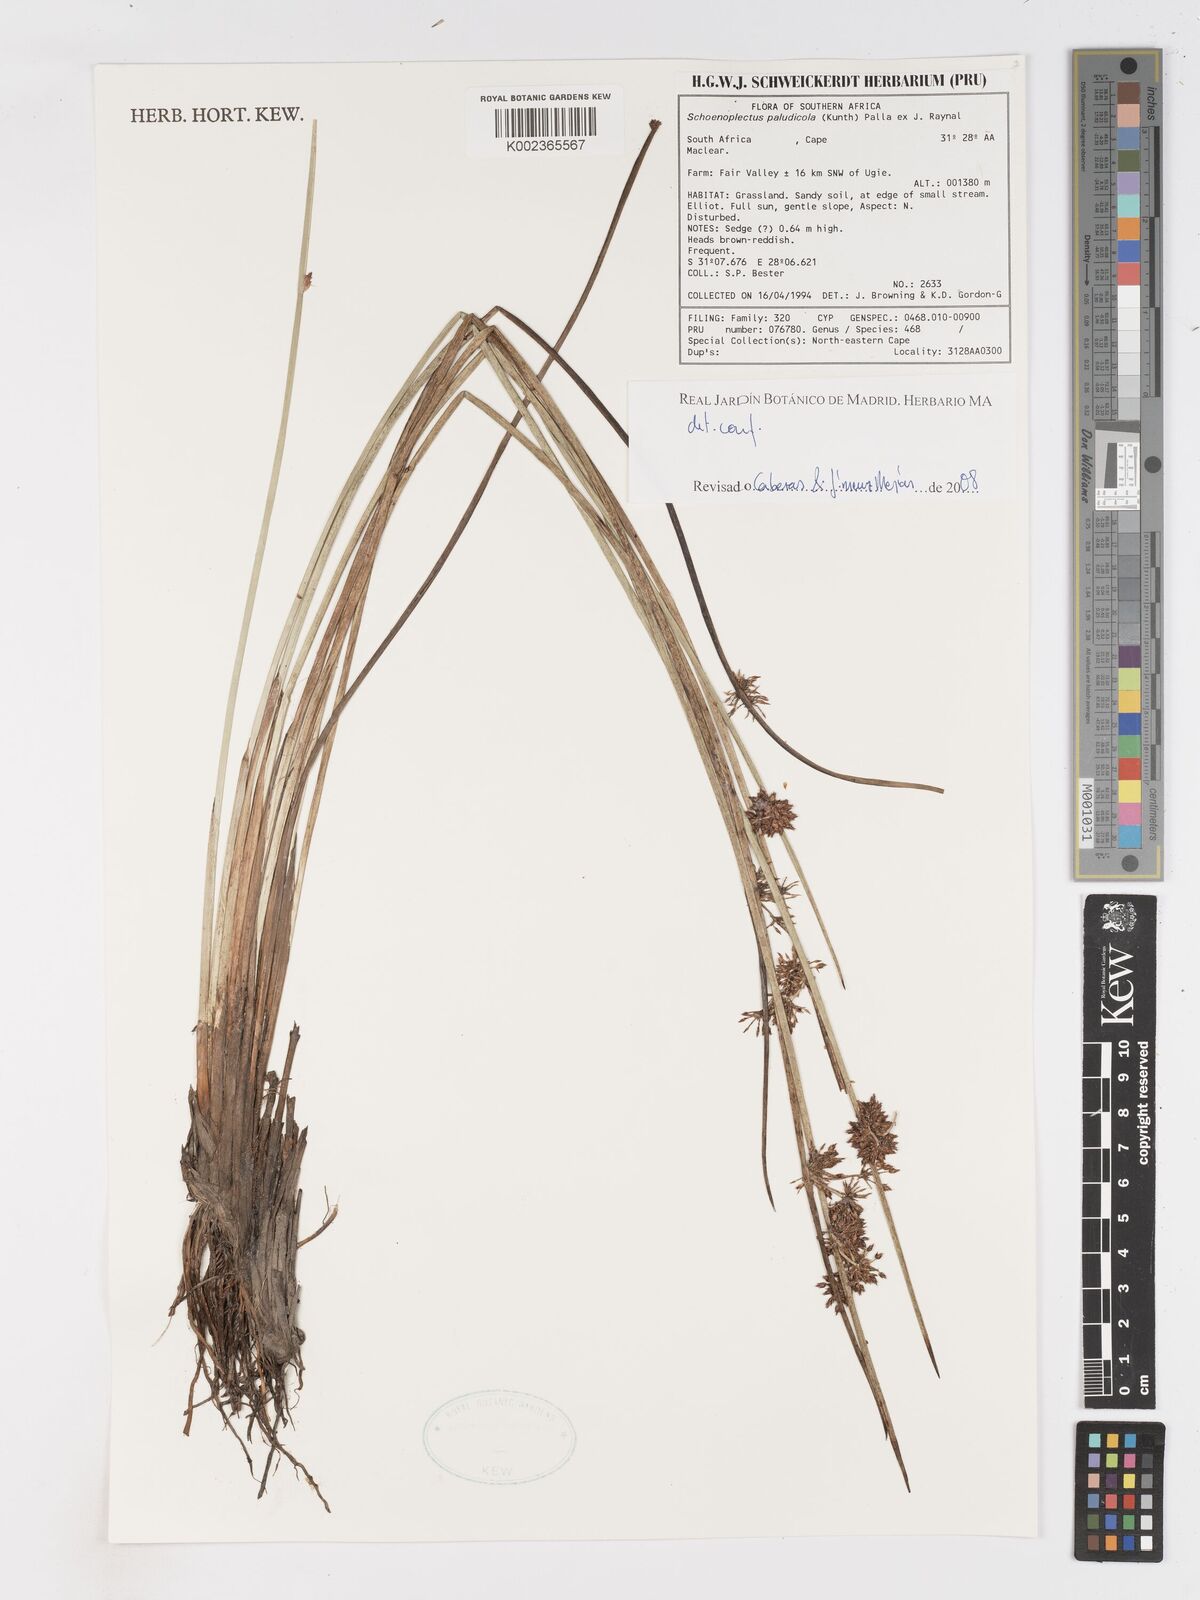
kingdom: Plantae
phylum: Tracheophyta
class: Liliopsida
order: Poales
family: Cyperaceae
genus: Schoenoplectiella
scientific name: Schoenoplectiella paludicola
